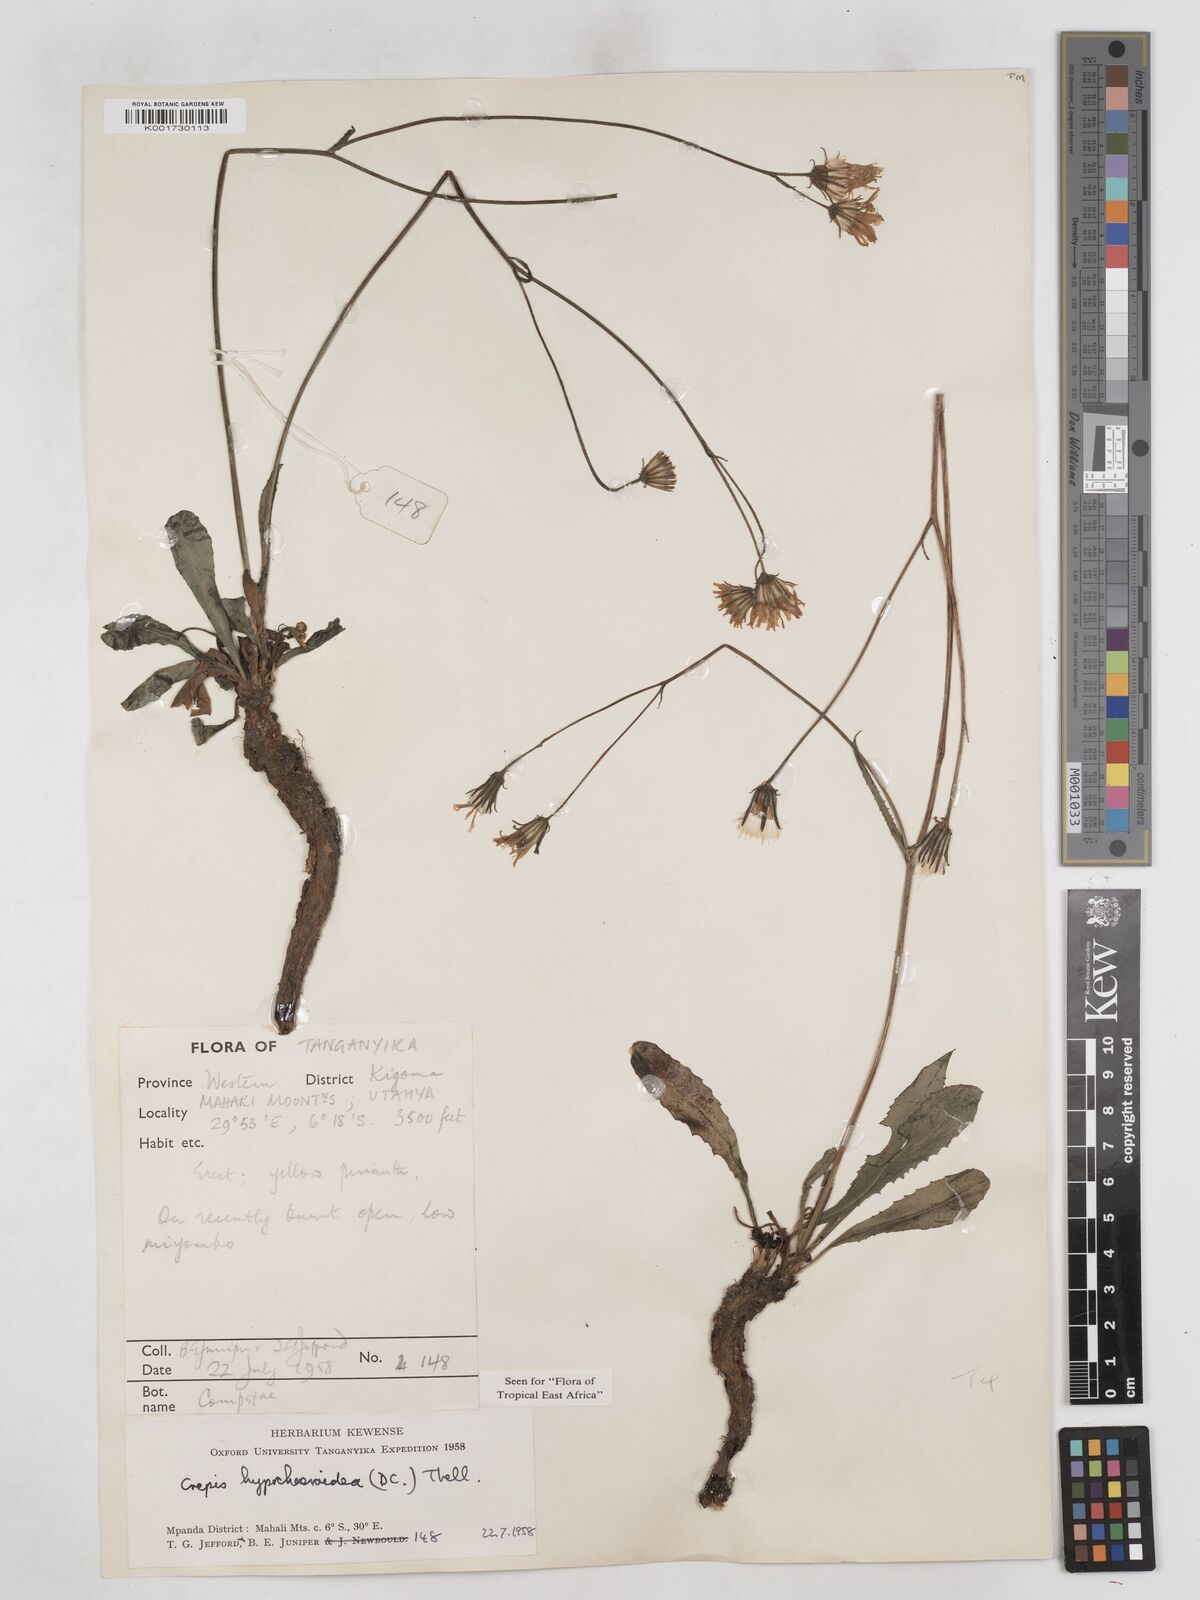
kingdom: Plantae
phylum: Tracheophyta
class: Magnoliopsida
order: Asterales
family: Asteraceae
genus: Crepis
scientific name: Crepis hypochoeridea
